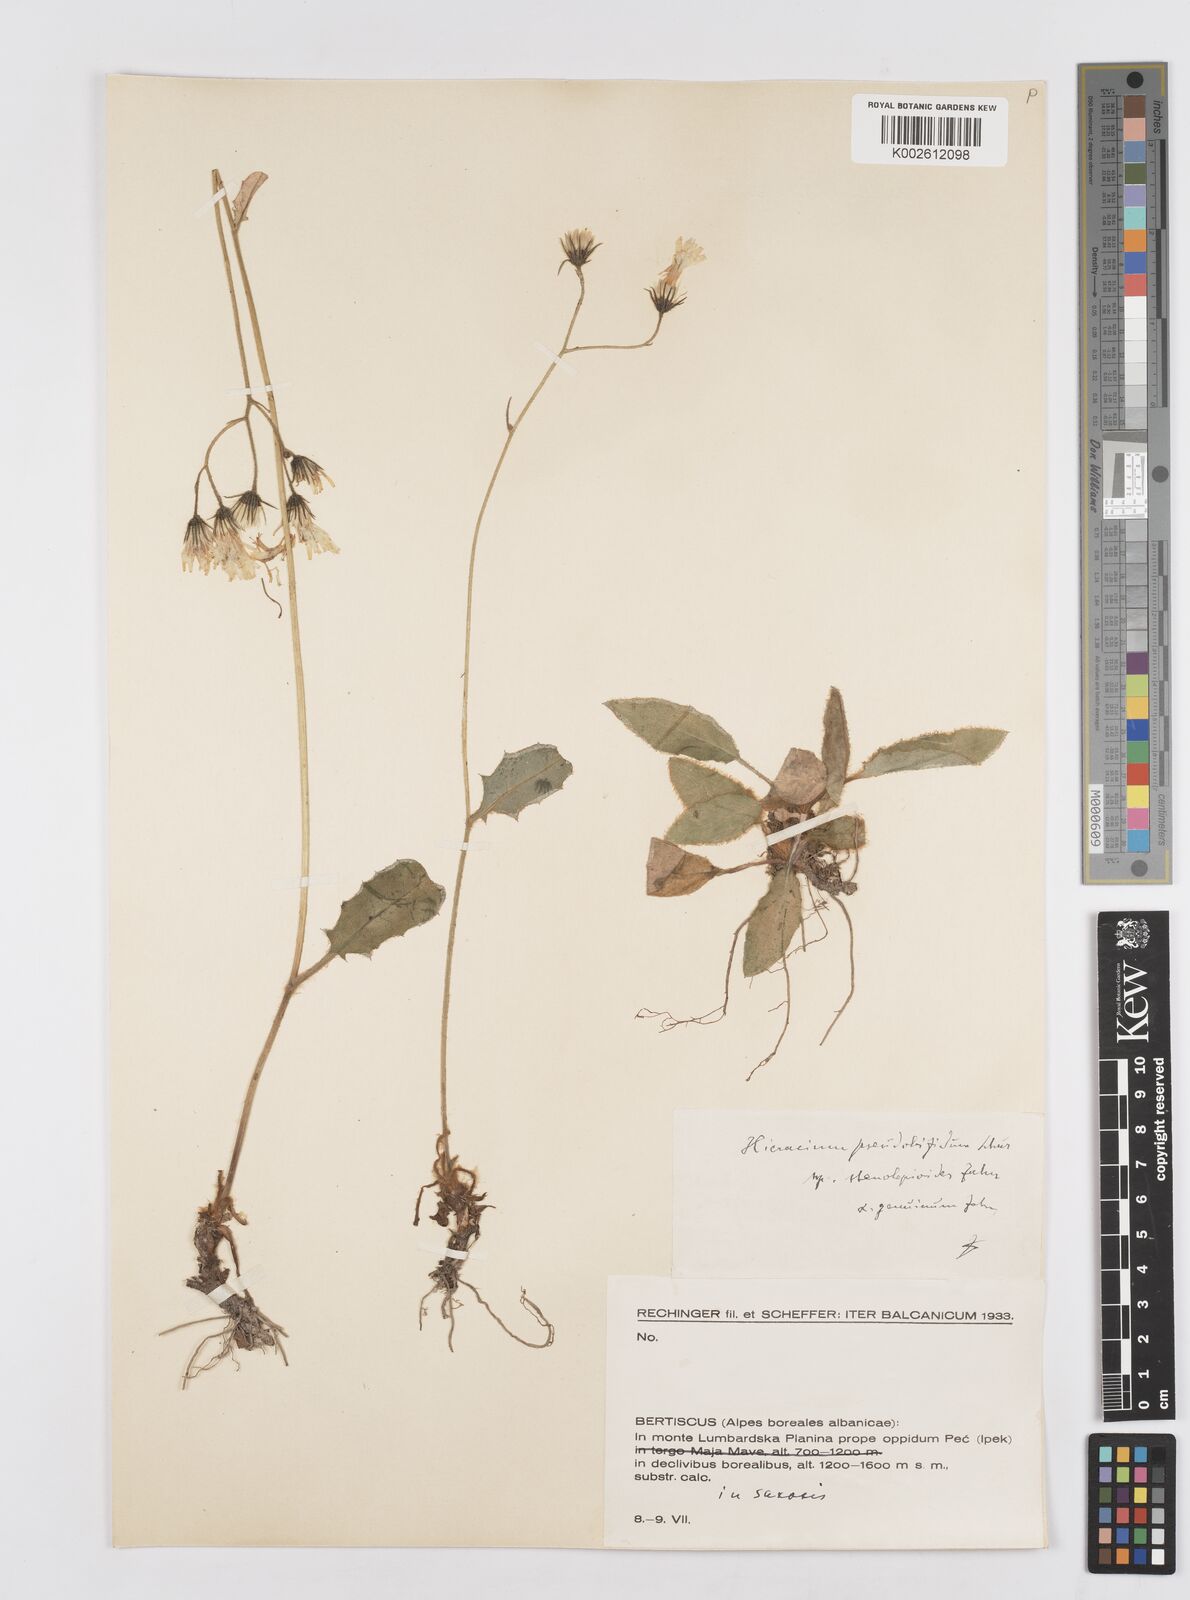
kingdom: Plantae
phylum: Tracheophyta
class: Magnoliopsida
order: Asterales
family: Asteraceae
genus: Hieracium
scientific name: Hieracium
